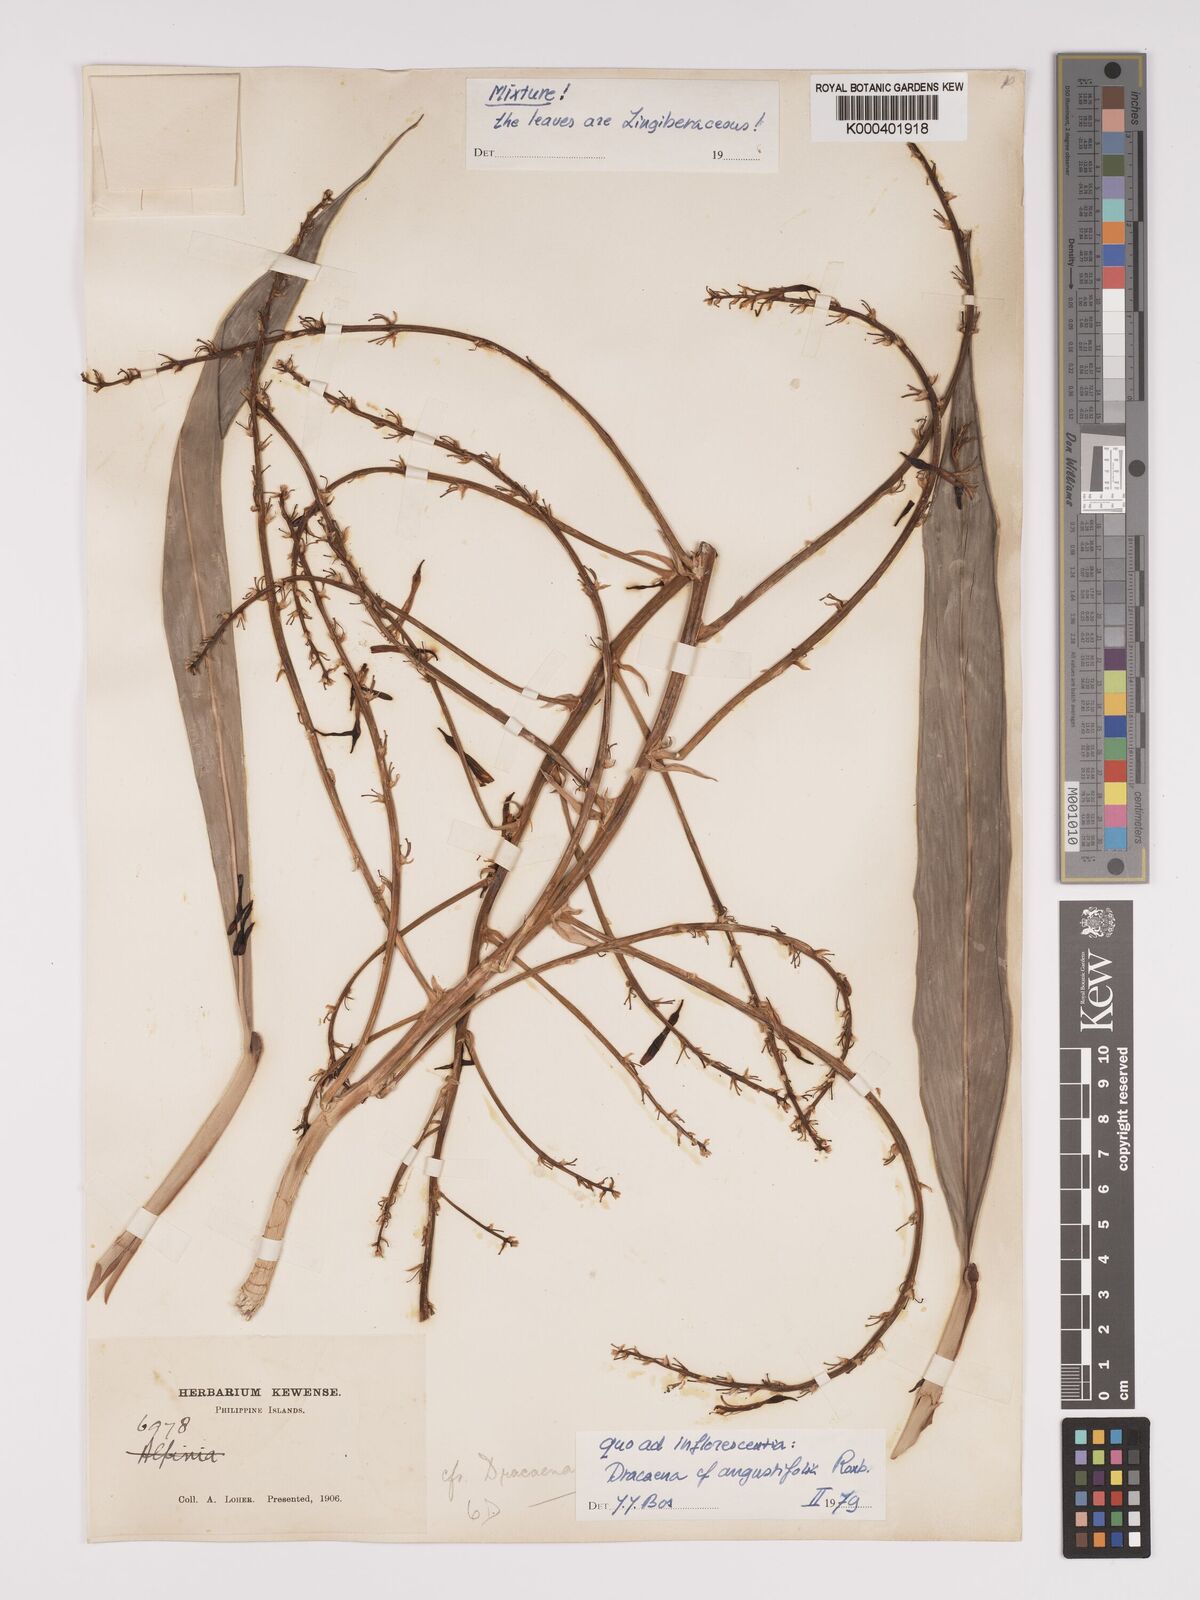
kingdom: Plantae
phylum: Tracheophyta
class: Liliopsida
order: Asparagales
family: Asparagaceae
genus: Dracaena
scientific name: Dracaena angustifolia
